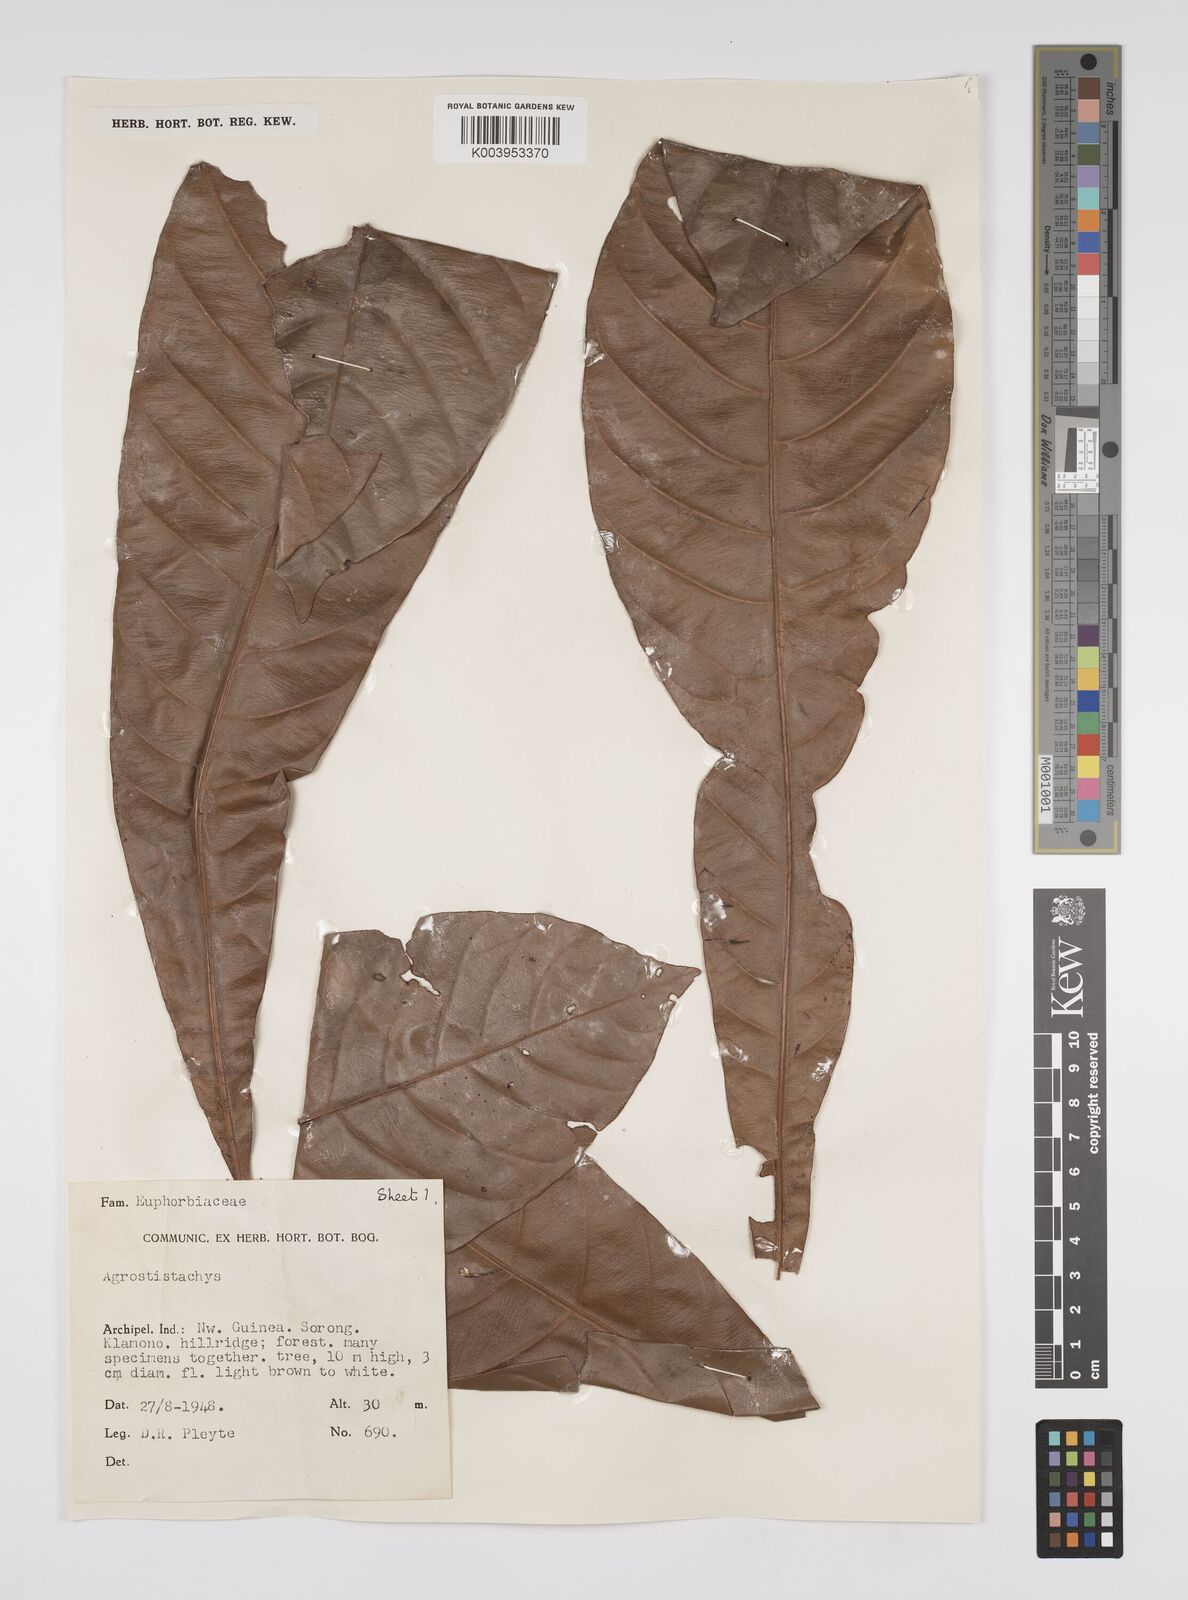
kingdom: Plantae
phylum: Tracheophyta
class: Magnoliopsida
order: Malpighiales
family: Euphorbiaceae
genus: Agrostistachys
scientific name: Agrostistachys
